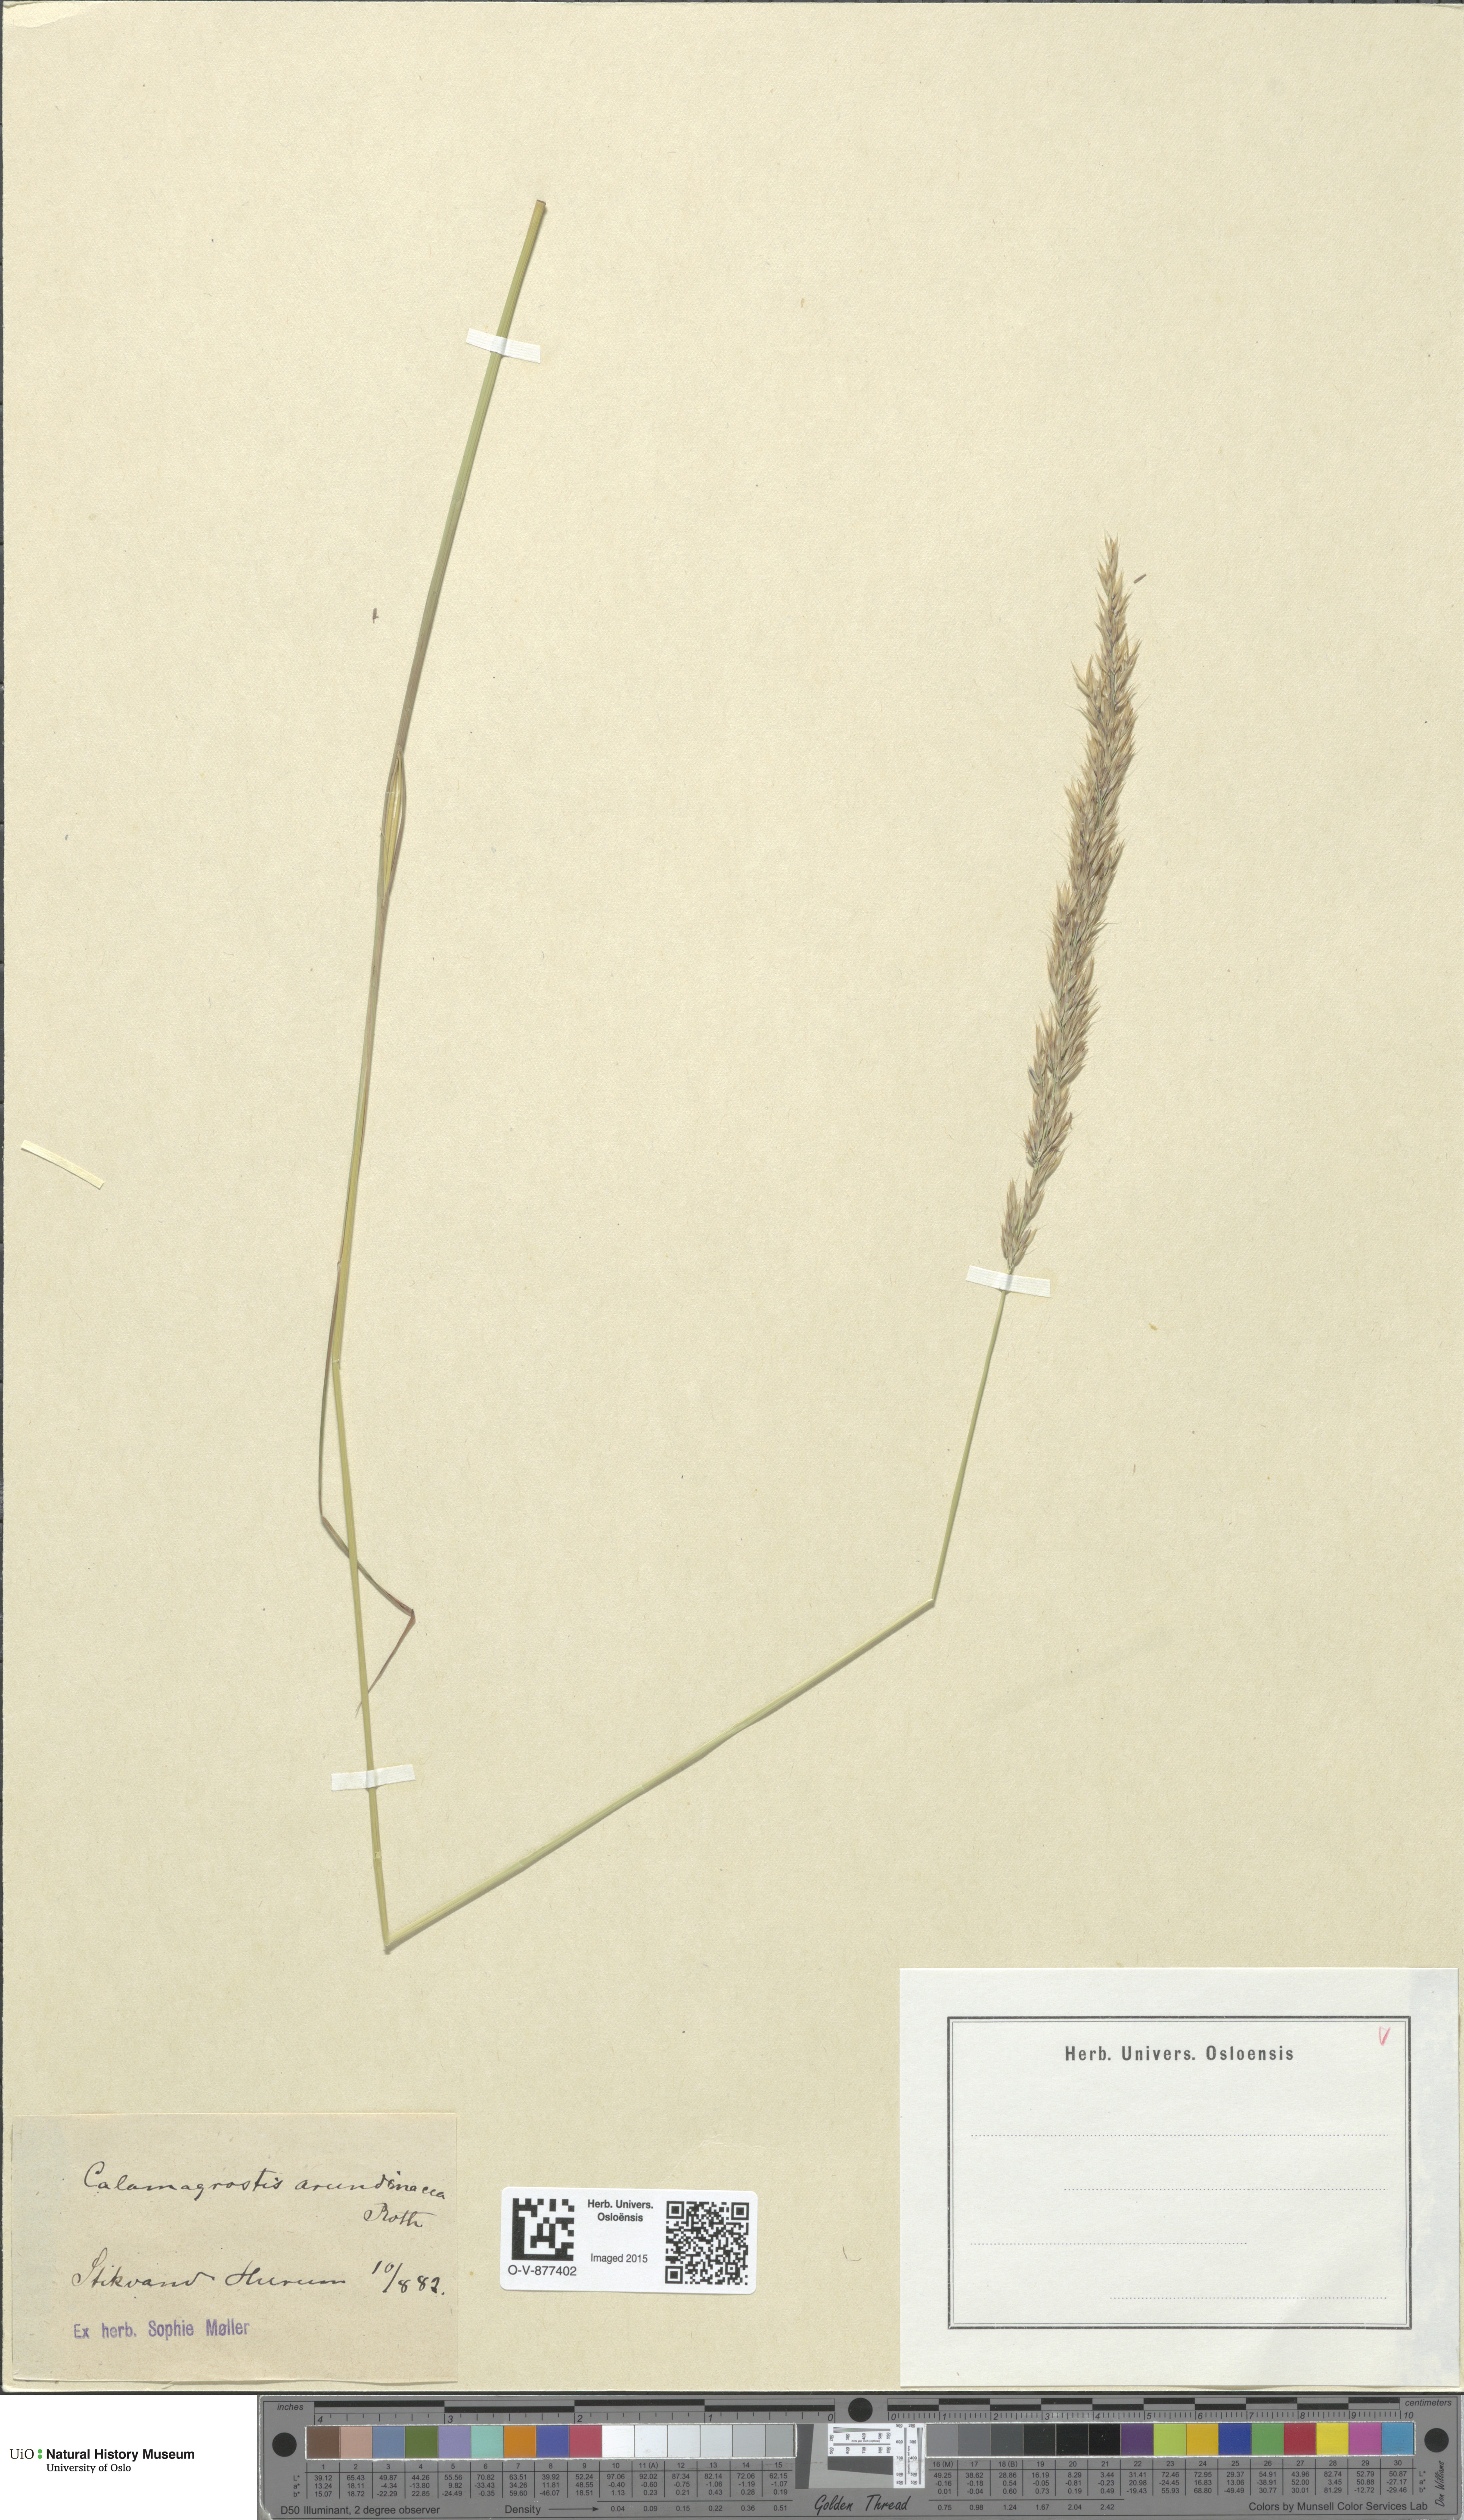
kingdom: Plantae
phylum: Tracheophyta
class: Liliopsida
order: Poales
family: Poaceae
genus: Calamagrostis
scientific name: Calamagrostis arundinacea
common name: Metskastik
